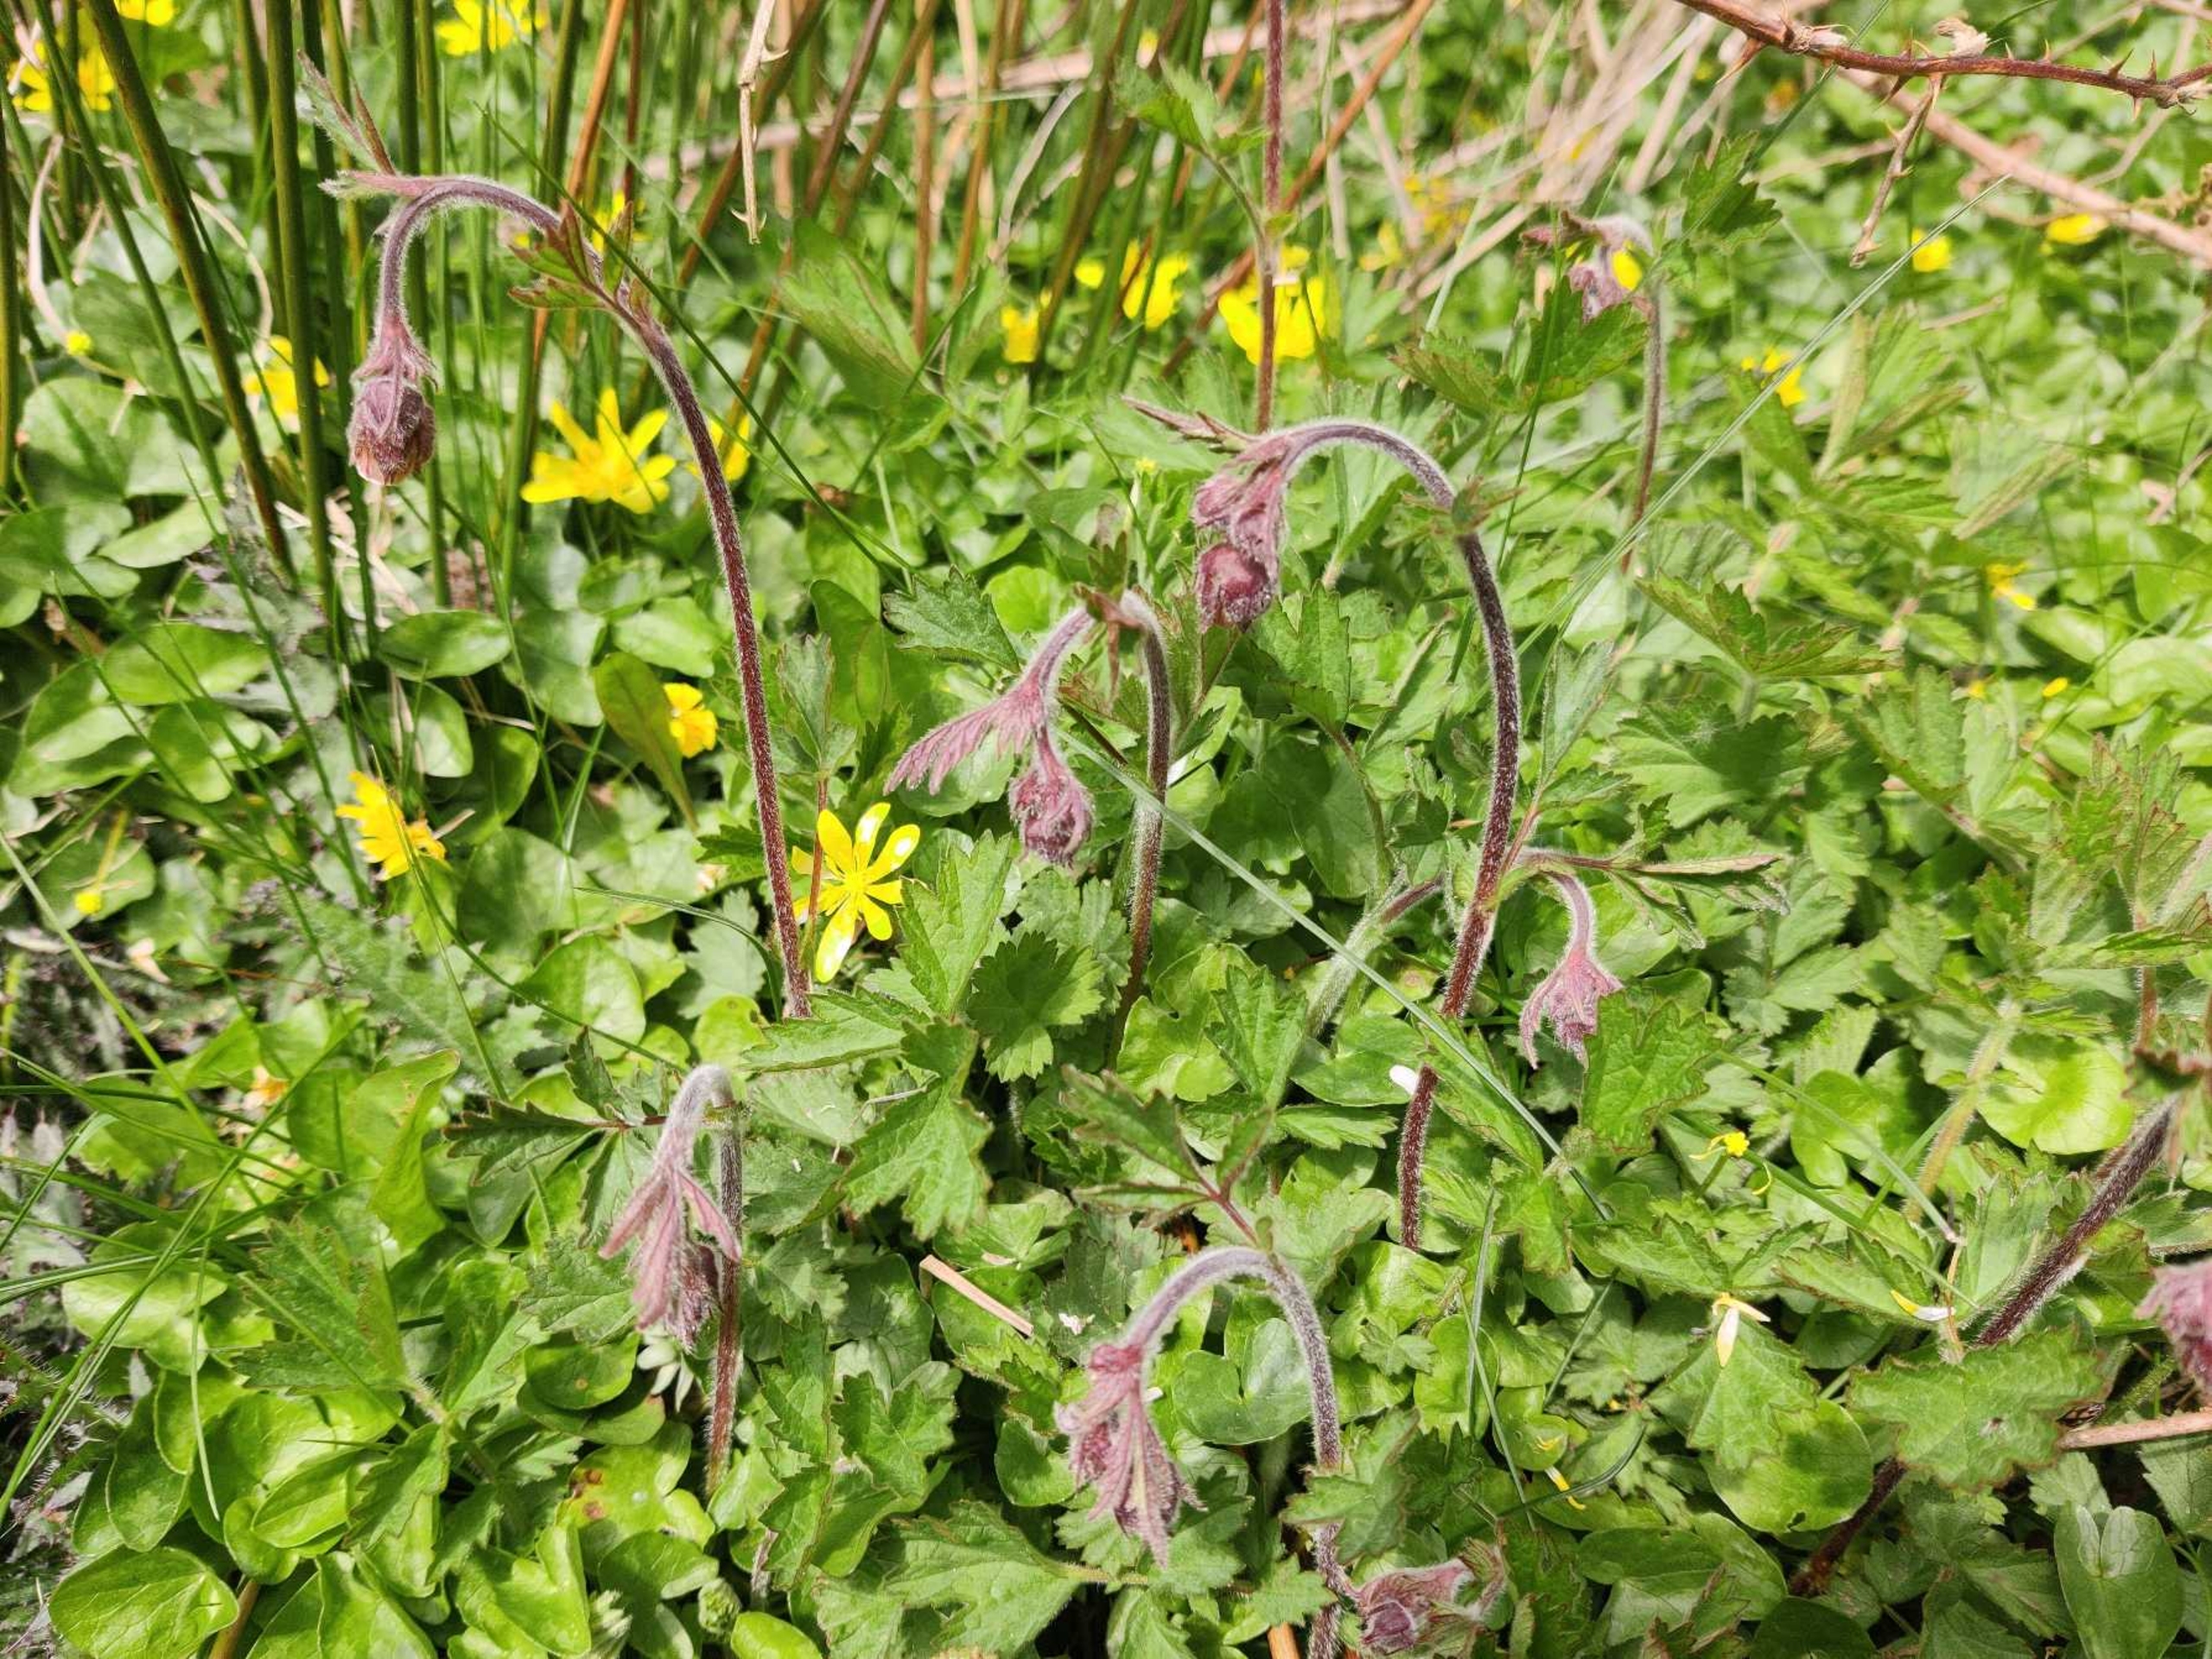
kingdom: Plantae
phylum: Tracheophyta
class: Magnoliopsida
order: Rosales
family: Rosaceae
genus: Geum
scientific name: Geum rivale
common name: Eng-nellikerod
